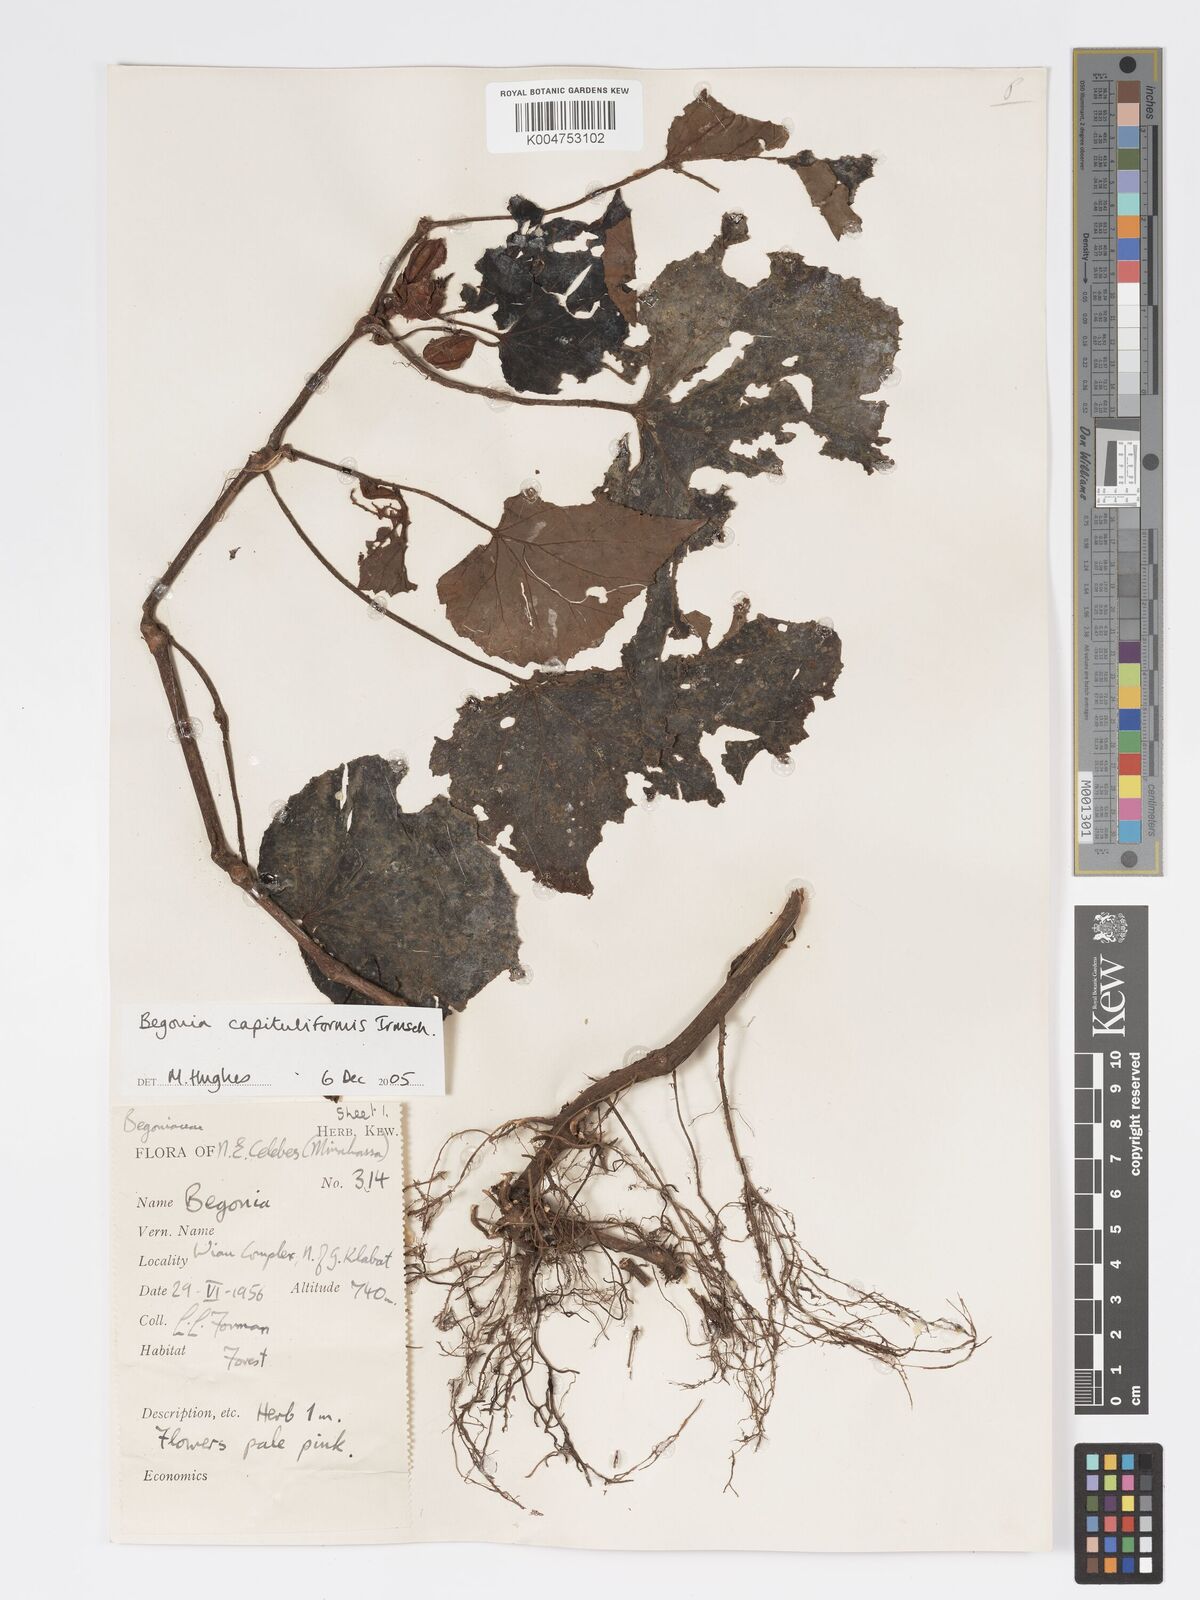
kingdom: Plantae
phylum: Tracheophyta
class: Magnoliopsida
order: Cucurbitales
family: Begoniaceae
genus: Begonia
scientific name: Begonia capituliformis
